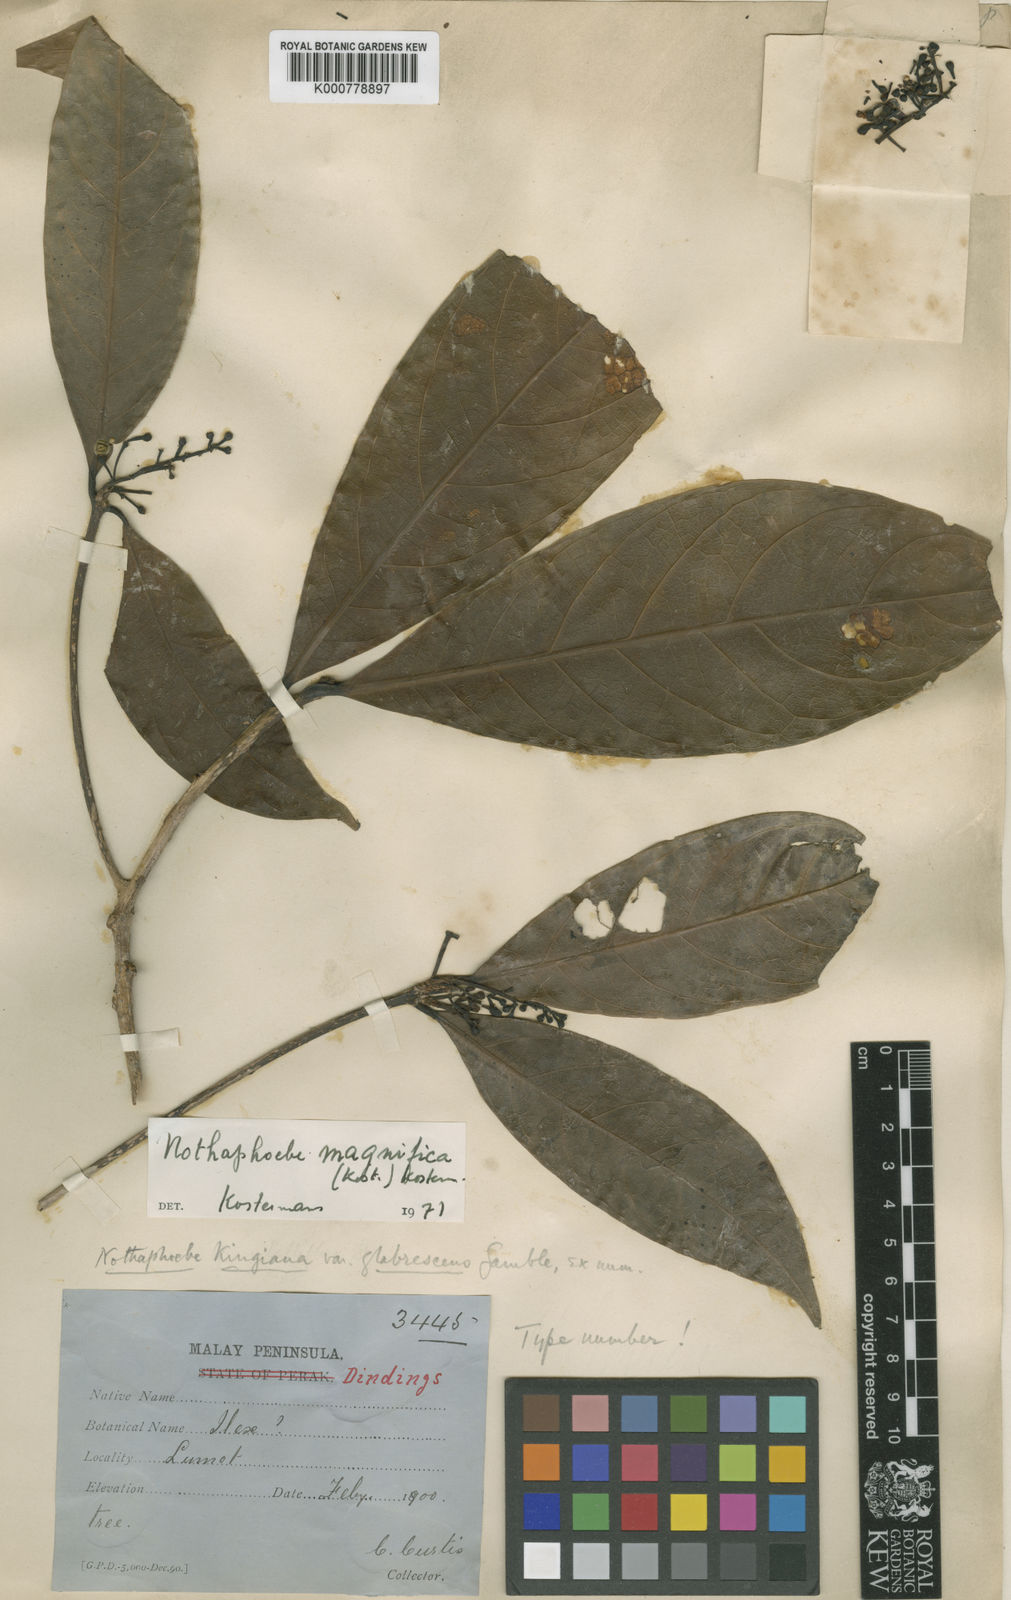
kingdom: Plantae
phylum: Tracheophyta
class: Magnoliopsida
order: Laurales
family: Lauraceae
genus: Nothaphoebe
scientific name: Nothaphoebe magnifica
